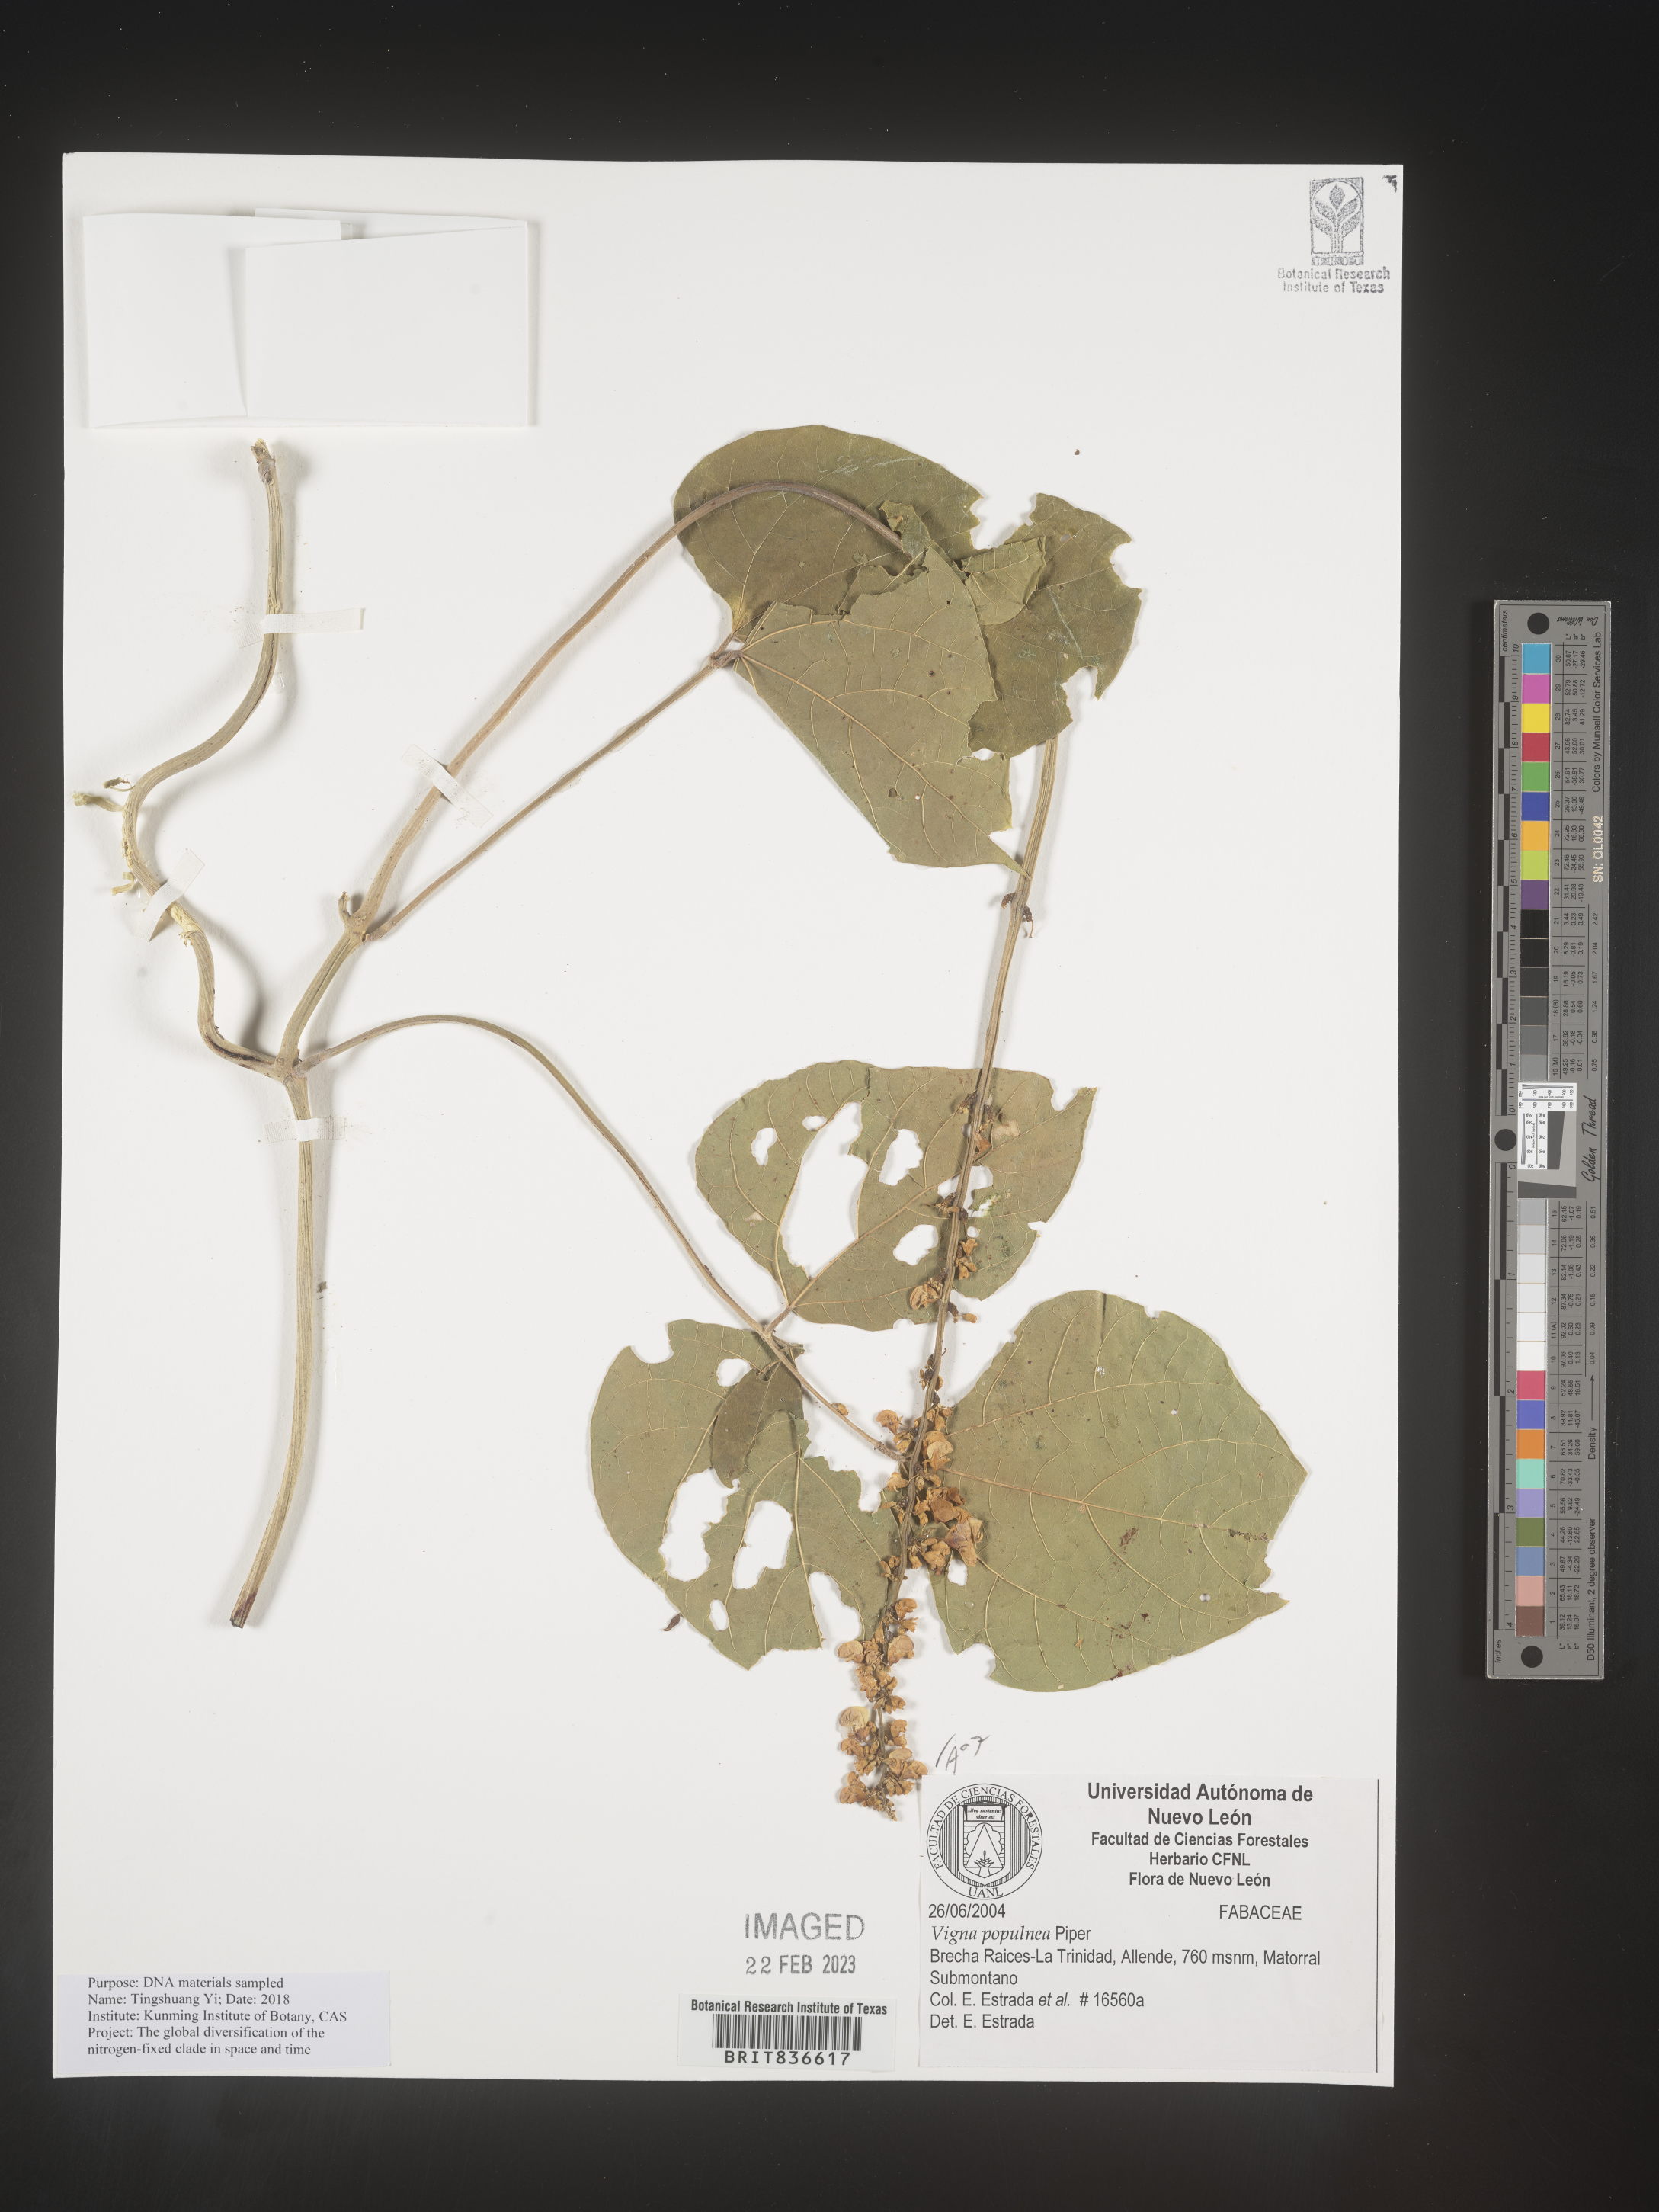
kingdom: Plantae
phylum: Tracheophyta
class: Magnoliopsida
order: Fabales
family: Fabaceae
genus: Vigna
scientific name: Vigna
